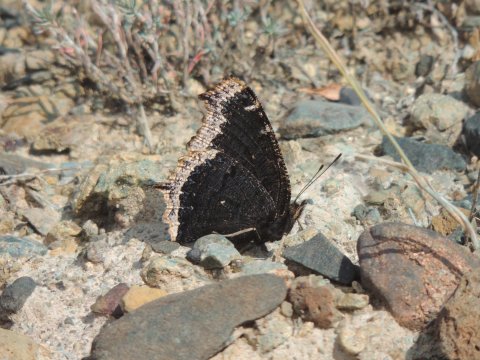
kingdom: Animalia
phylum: Arthropoda
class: Insecta
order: Lepidoptera
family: Nymphalidae
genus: Nymphalis
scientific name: Nymphalis antiopa
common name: Mourning Cloak
